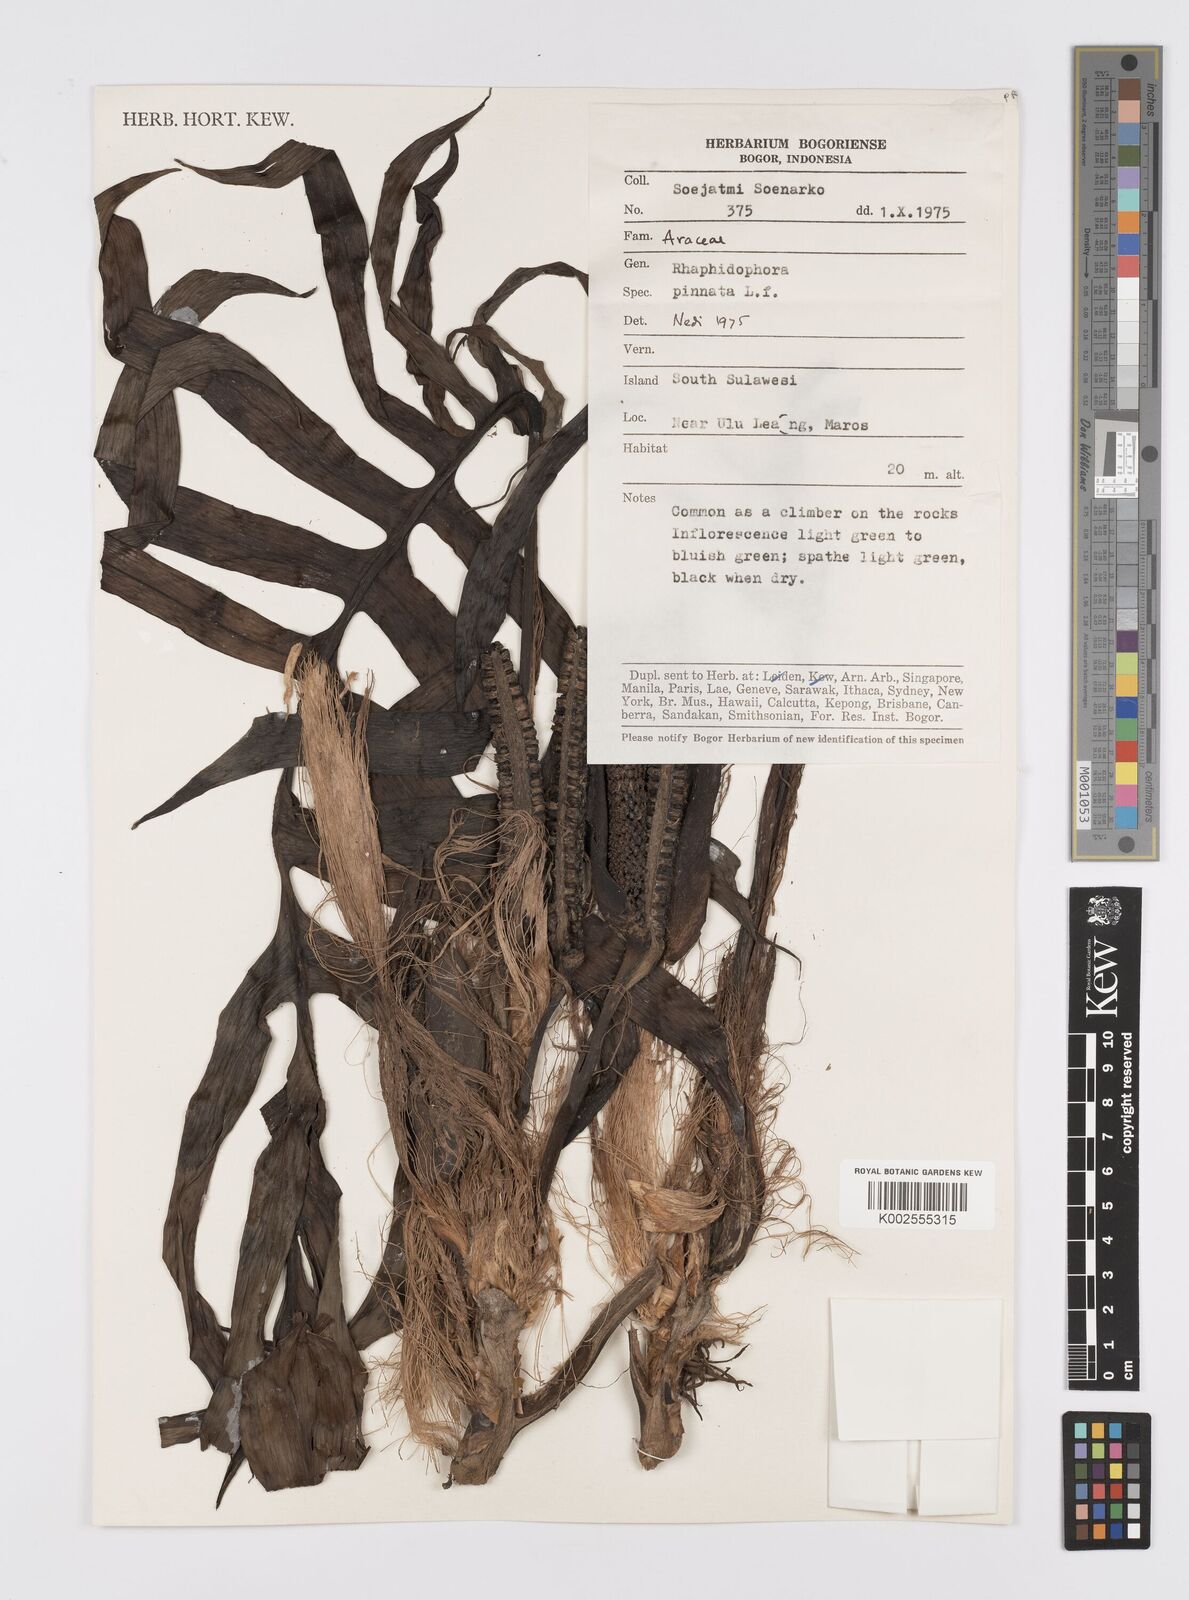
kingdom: Plantae
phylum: Tracheophyta
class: Liliopsida
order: Alismatales
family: Araceae
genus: Epipremnum
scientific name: Epipremnum pinnatum
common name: Centipede tongavine
